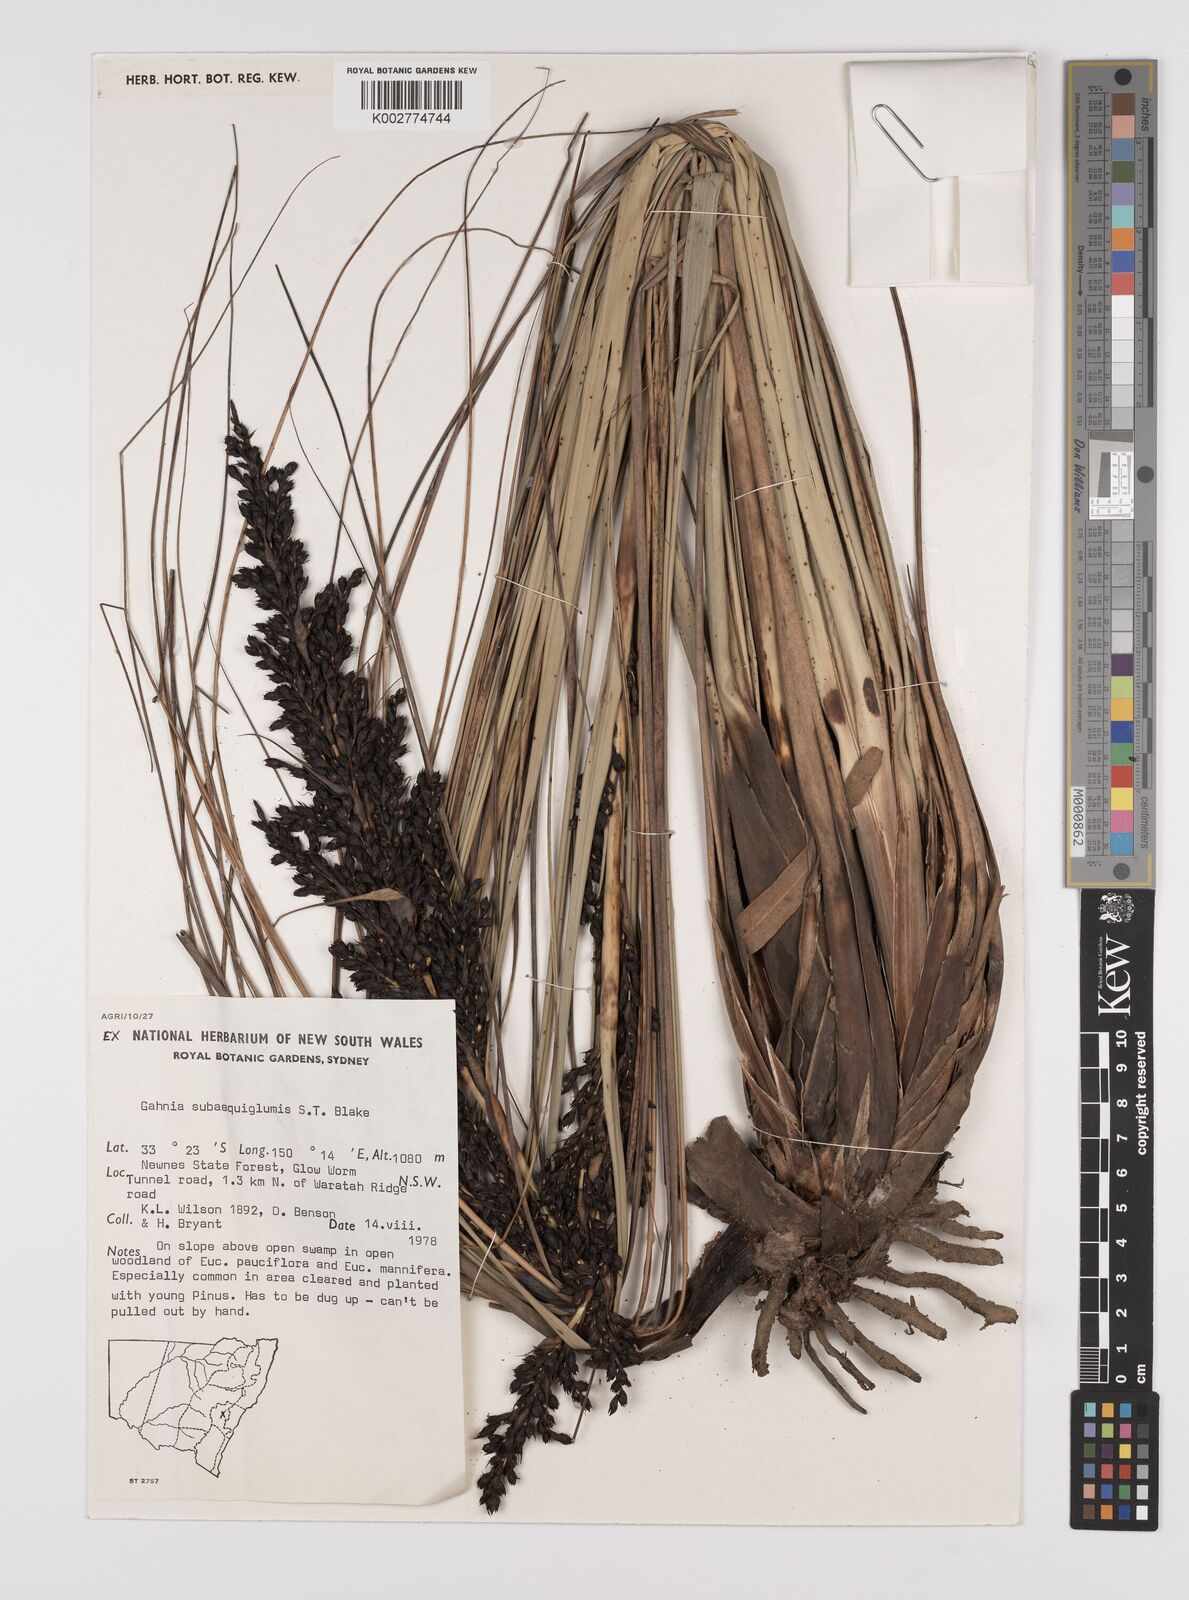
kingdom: Plantae
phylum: Tracheophyta
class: Liliopsida
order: Poales
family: Cyperaceae
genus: Gahnia
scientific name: Gahnia subaequiglumis
